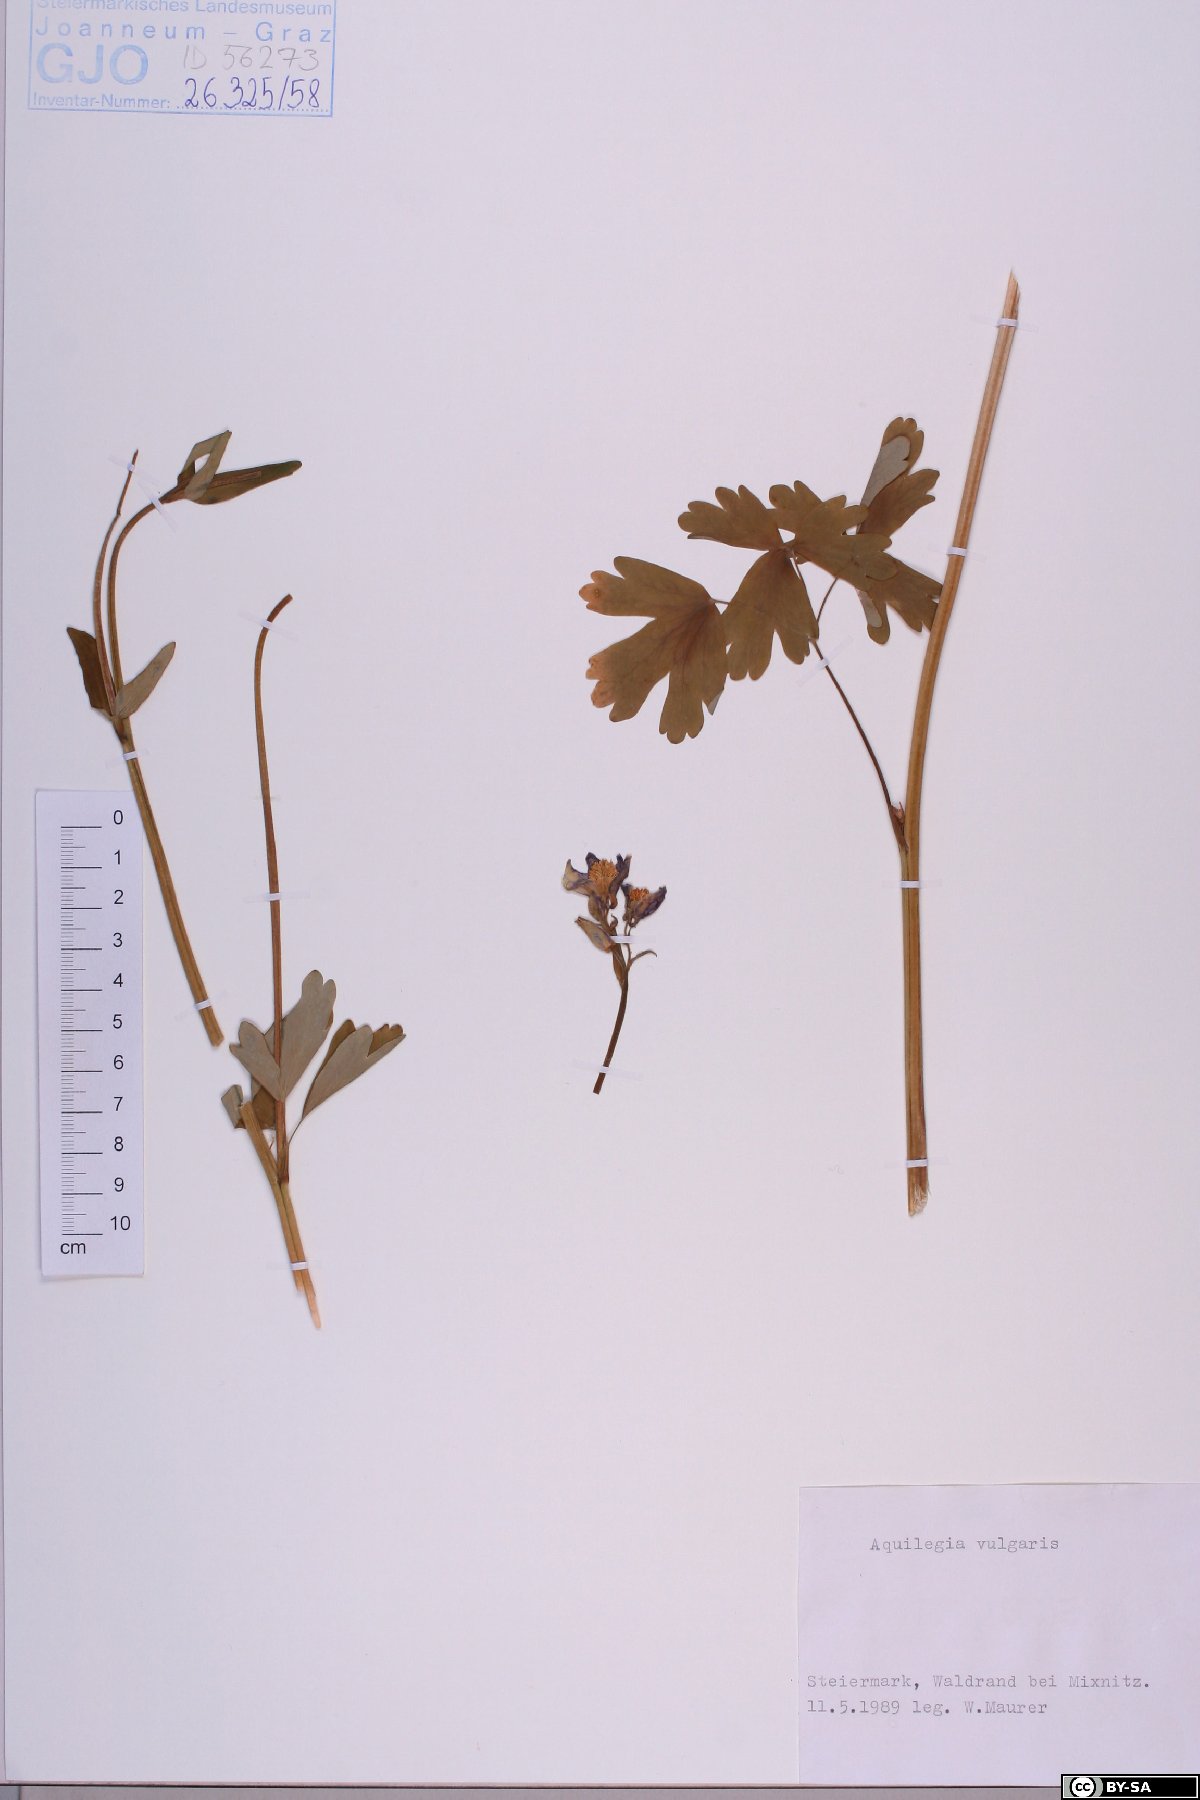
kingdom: Plantae
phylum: Tracheophyta
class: Magnoliopsida
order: Ranunculales
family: Ranunculaceae
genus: Aquilegia
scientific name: Aquilegia vulgaris
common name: Columbine
